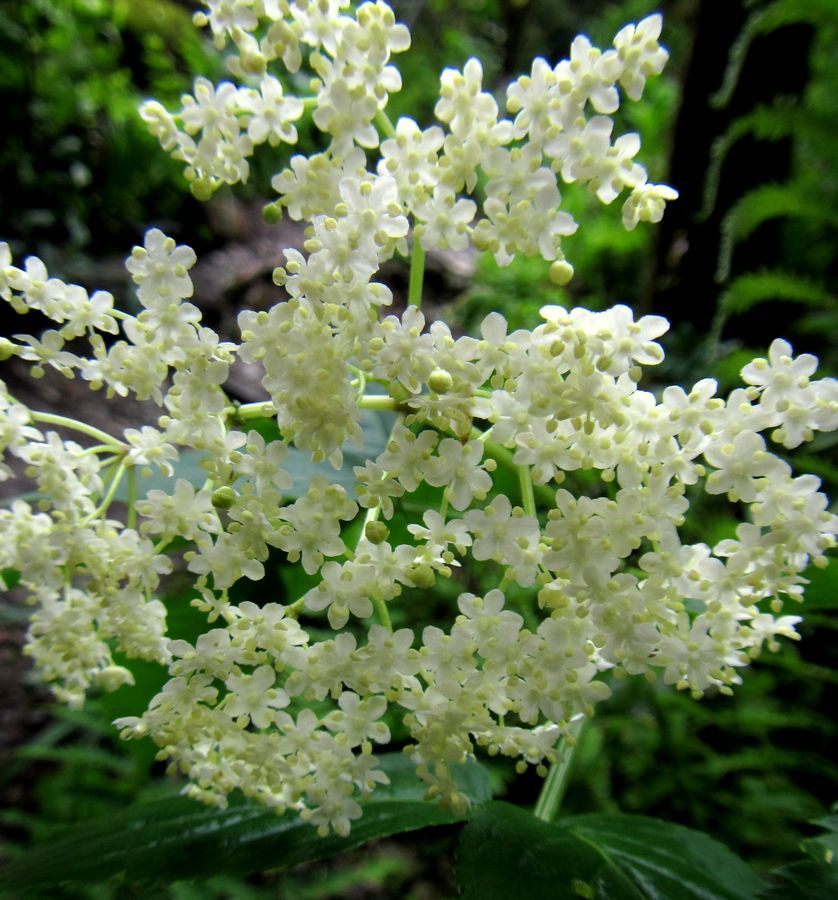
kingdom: Plantae
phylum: Tracheophyta
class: Magnoliopsida
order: Dipsacales
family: Viburnaceae
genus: Sambucus
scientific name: Sambucus nigra
